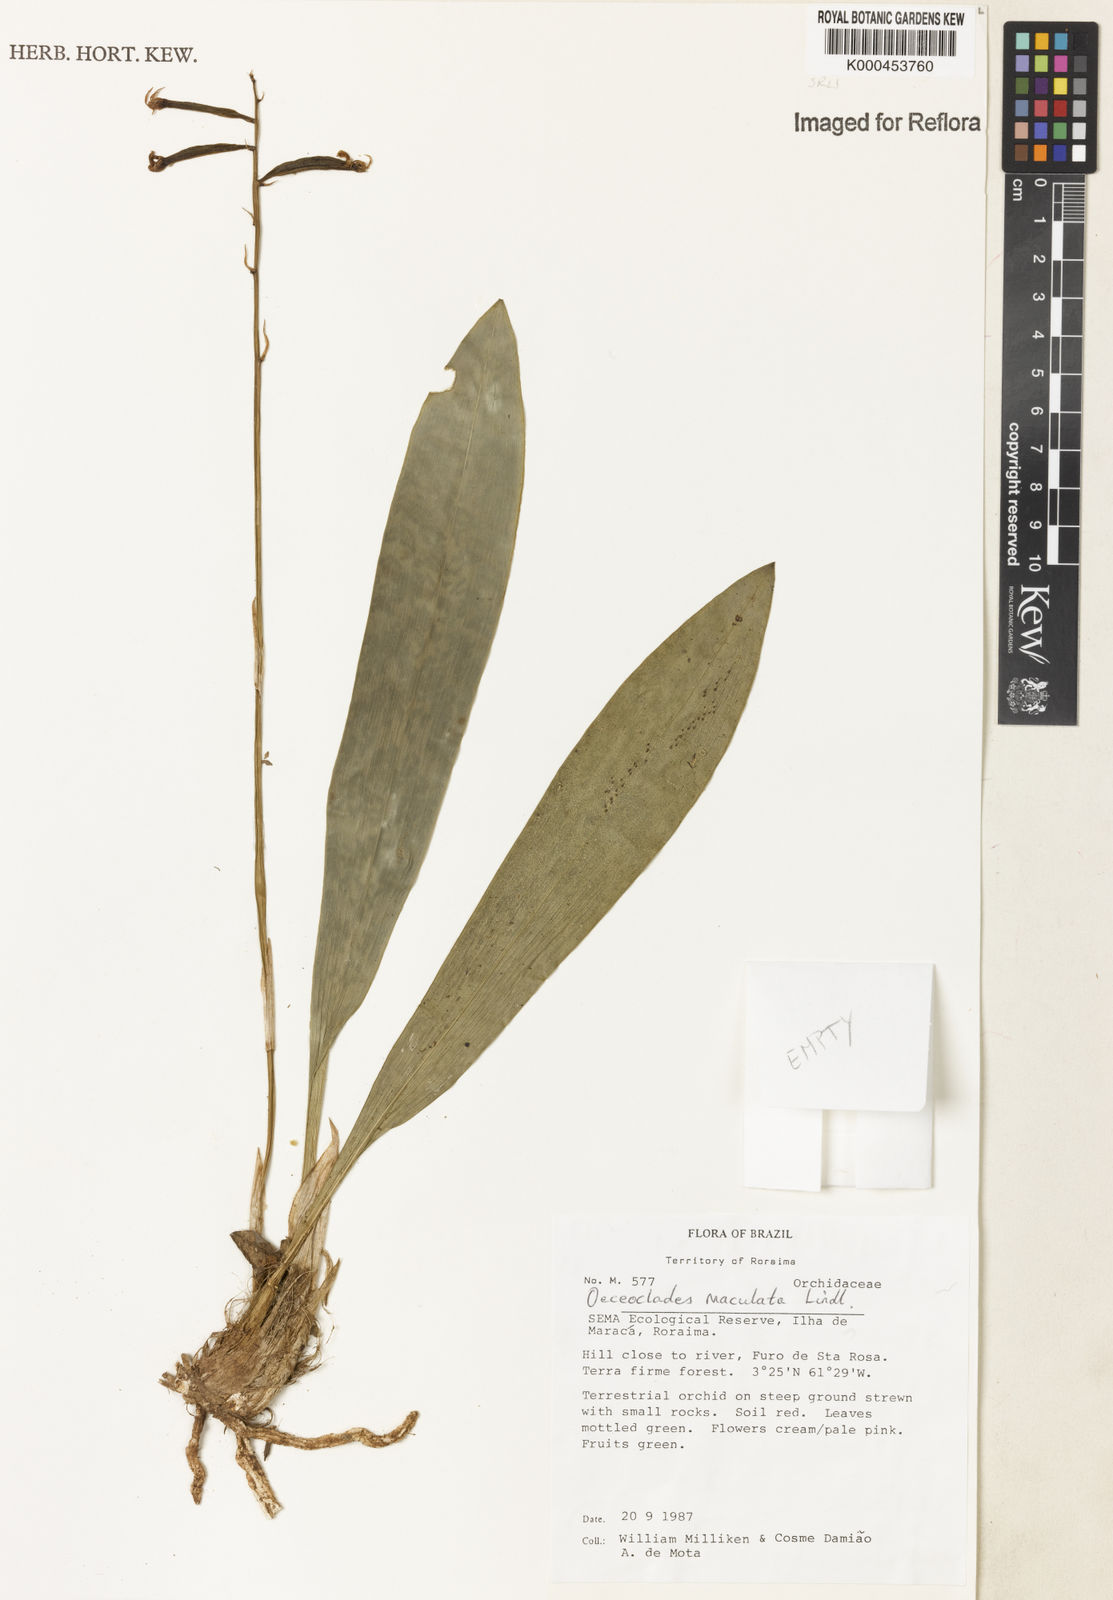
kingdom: Plantae
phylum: Tracheophyta
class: Liliopsida
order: Asparagales
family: Orchidaceae
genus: Eulophia
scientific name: Eulophia maculata
